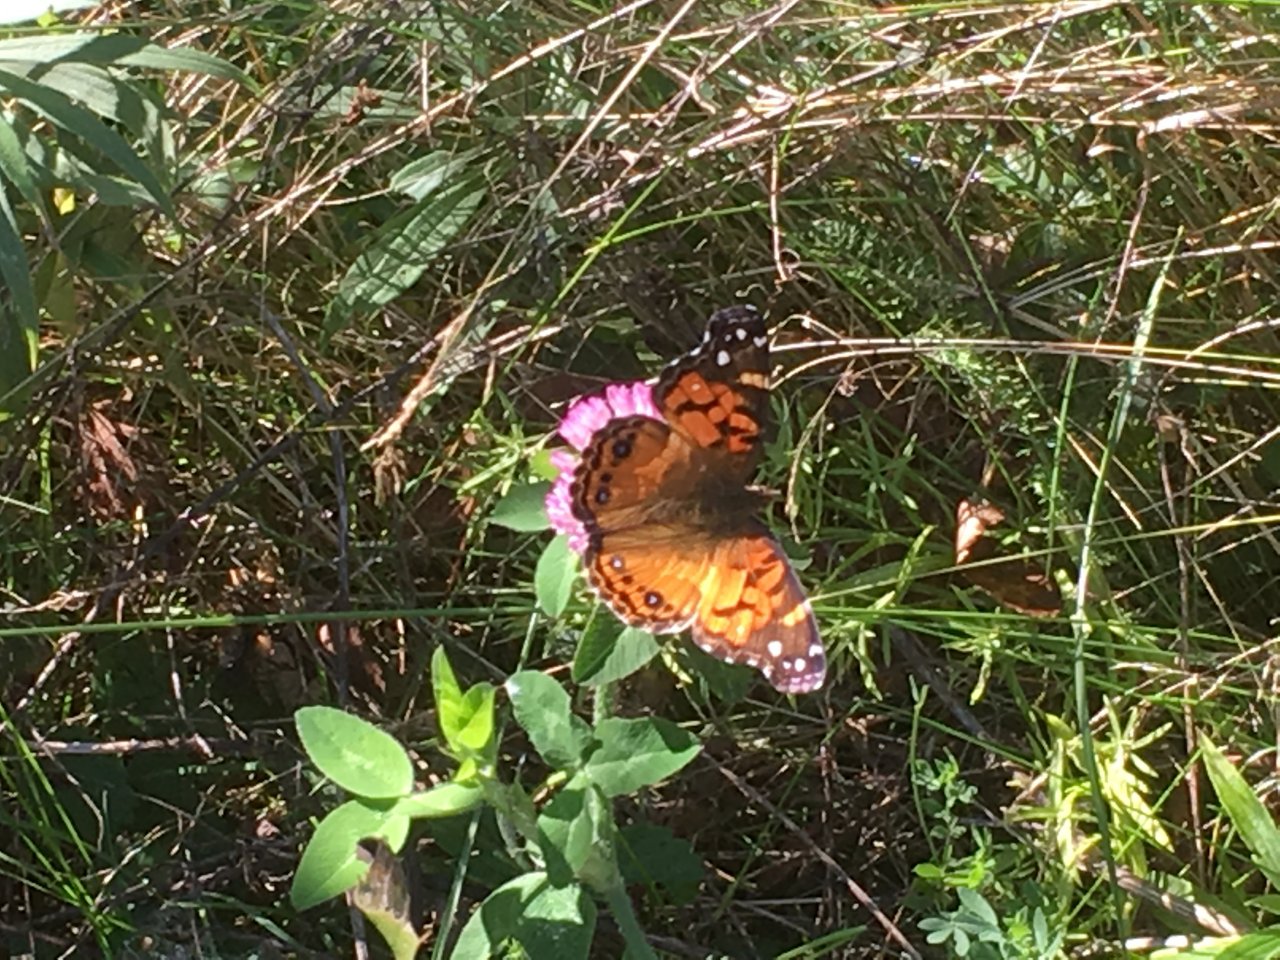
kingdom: Animalia
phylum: Arthropoda
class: Insecta
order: Lepidoptera
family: Nymphalidae
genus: Vanessa
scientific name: Vanessa virginiensis
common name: American Lady
